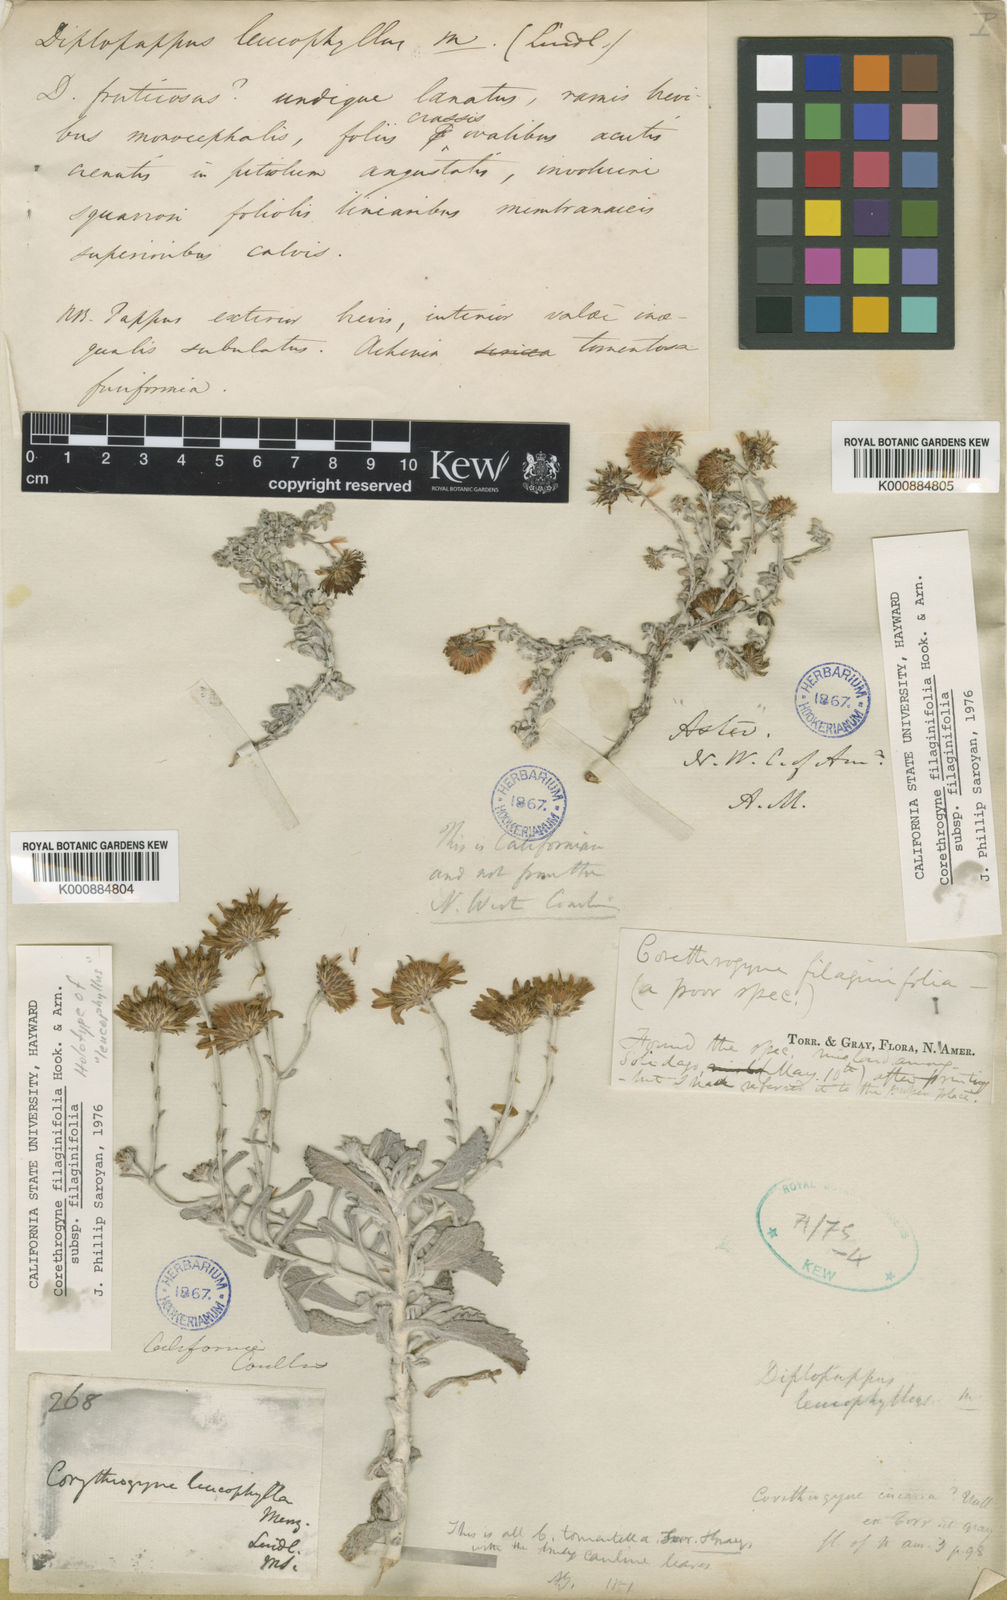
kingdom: Plantae
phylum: Tracheophyta
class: Magnoliopsida
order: Asterales
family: Asteraceae
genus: Corethrogyne
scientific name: Corethrogyne filaginifolia
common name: Sand-aster
